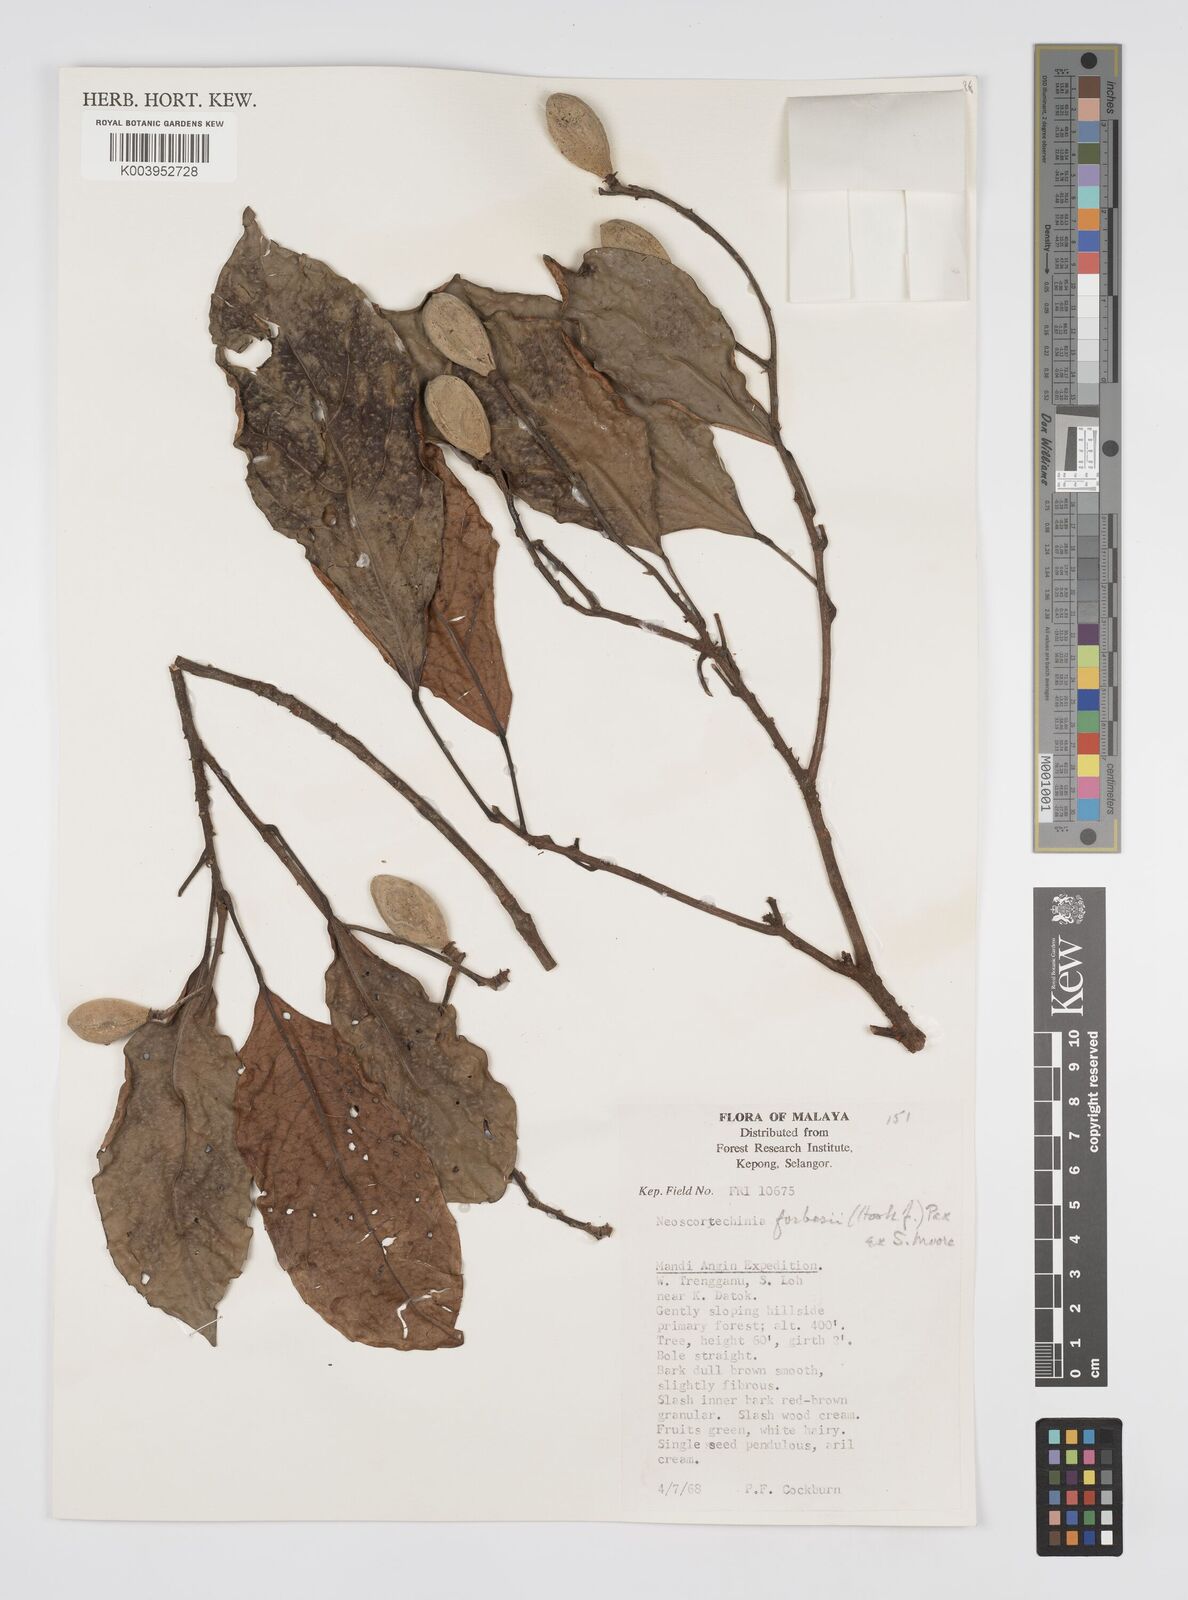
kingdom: Plantae
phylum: Tracheophyta
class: Magnoliopsida
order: Malpighiales
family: Euphorbiaceae
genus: Neoscortechinia
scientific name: Neoscortechinia philippinensis
